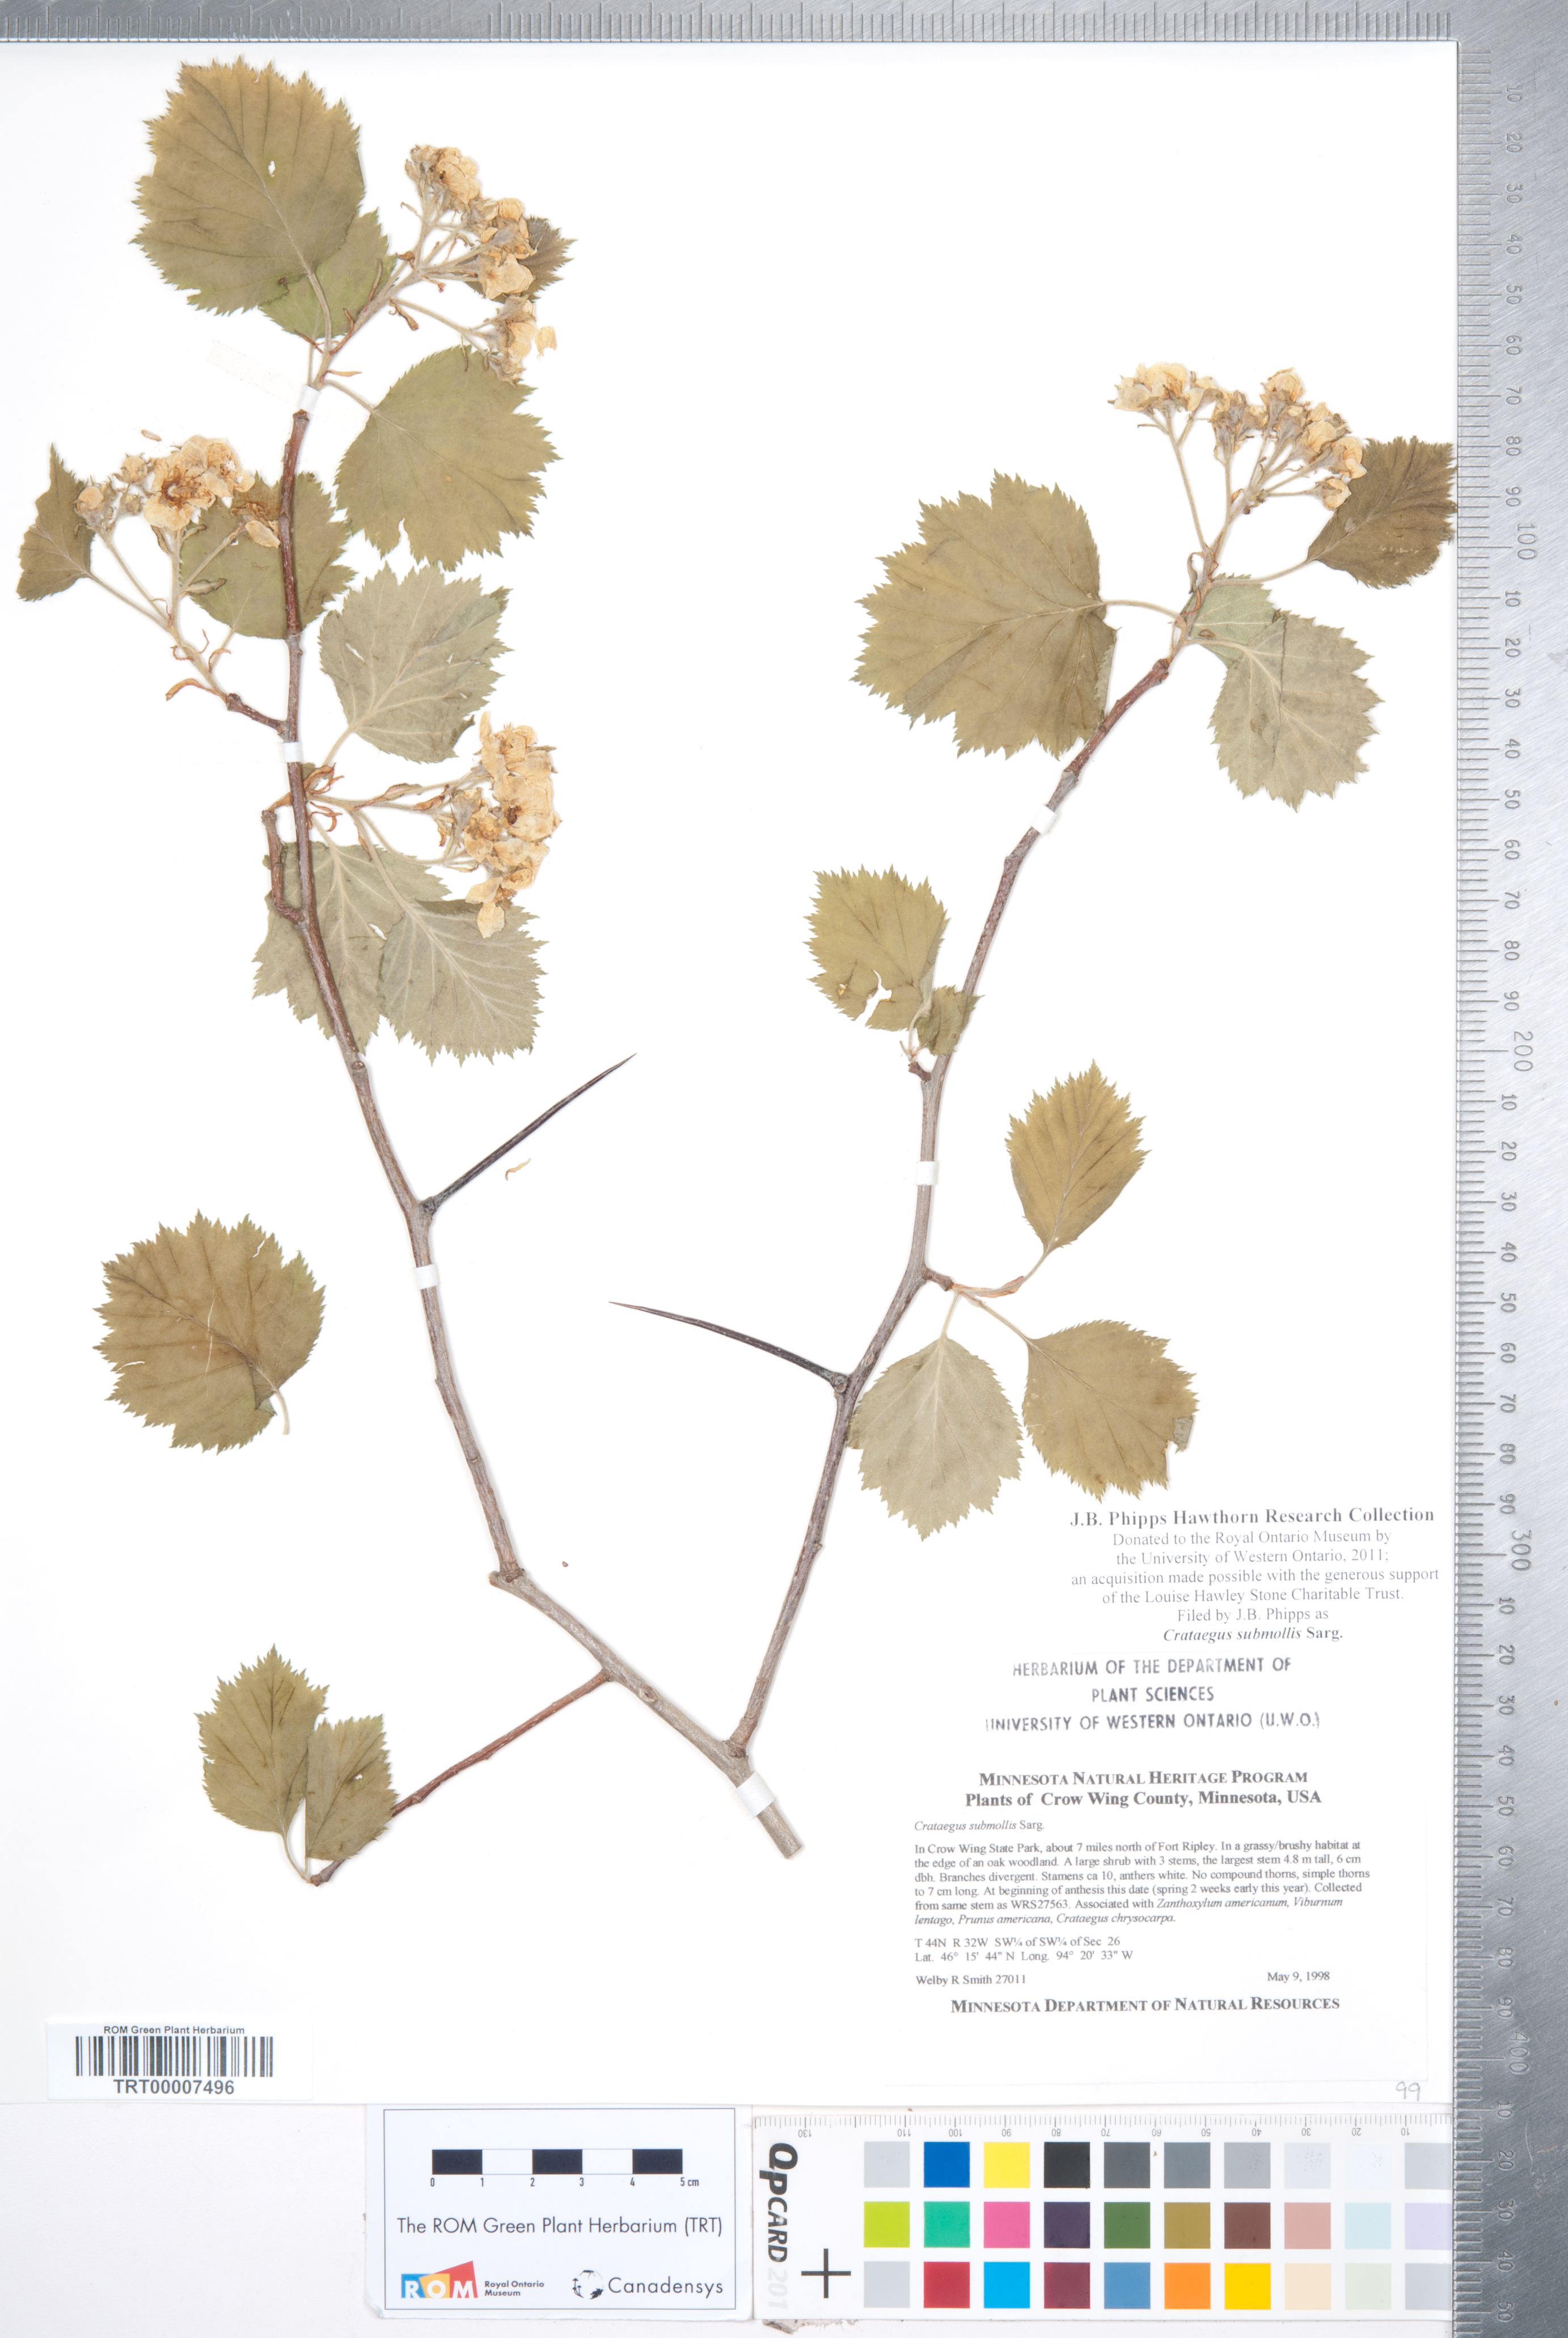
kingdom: Plantae
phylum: Tracheophyta
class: Magnoliopsida
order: Rosales
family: Rosaceae
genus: Crataegus
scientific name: Crataegus submollis
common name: Hairy cockspurthorn
